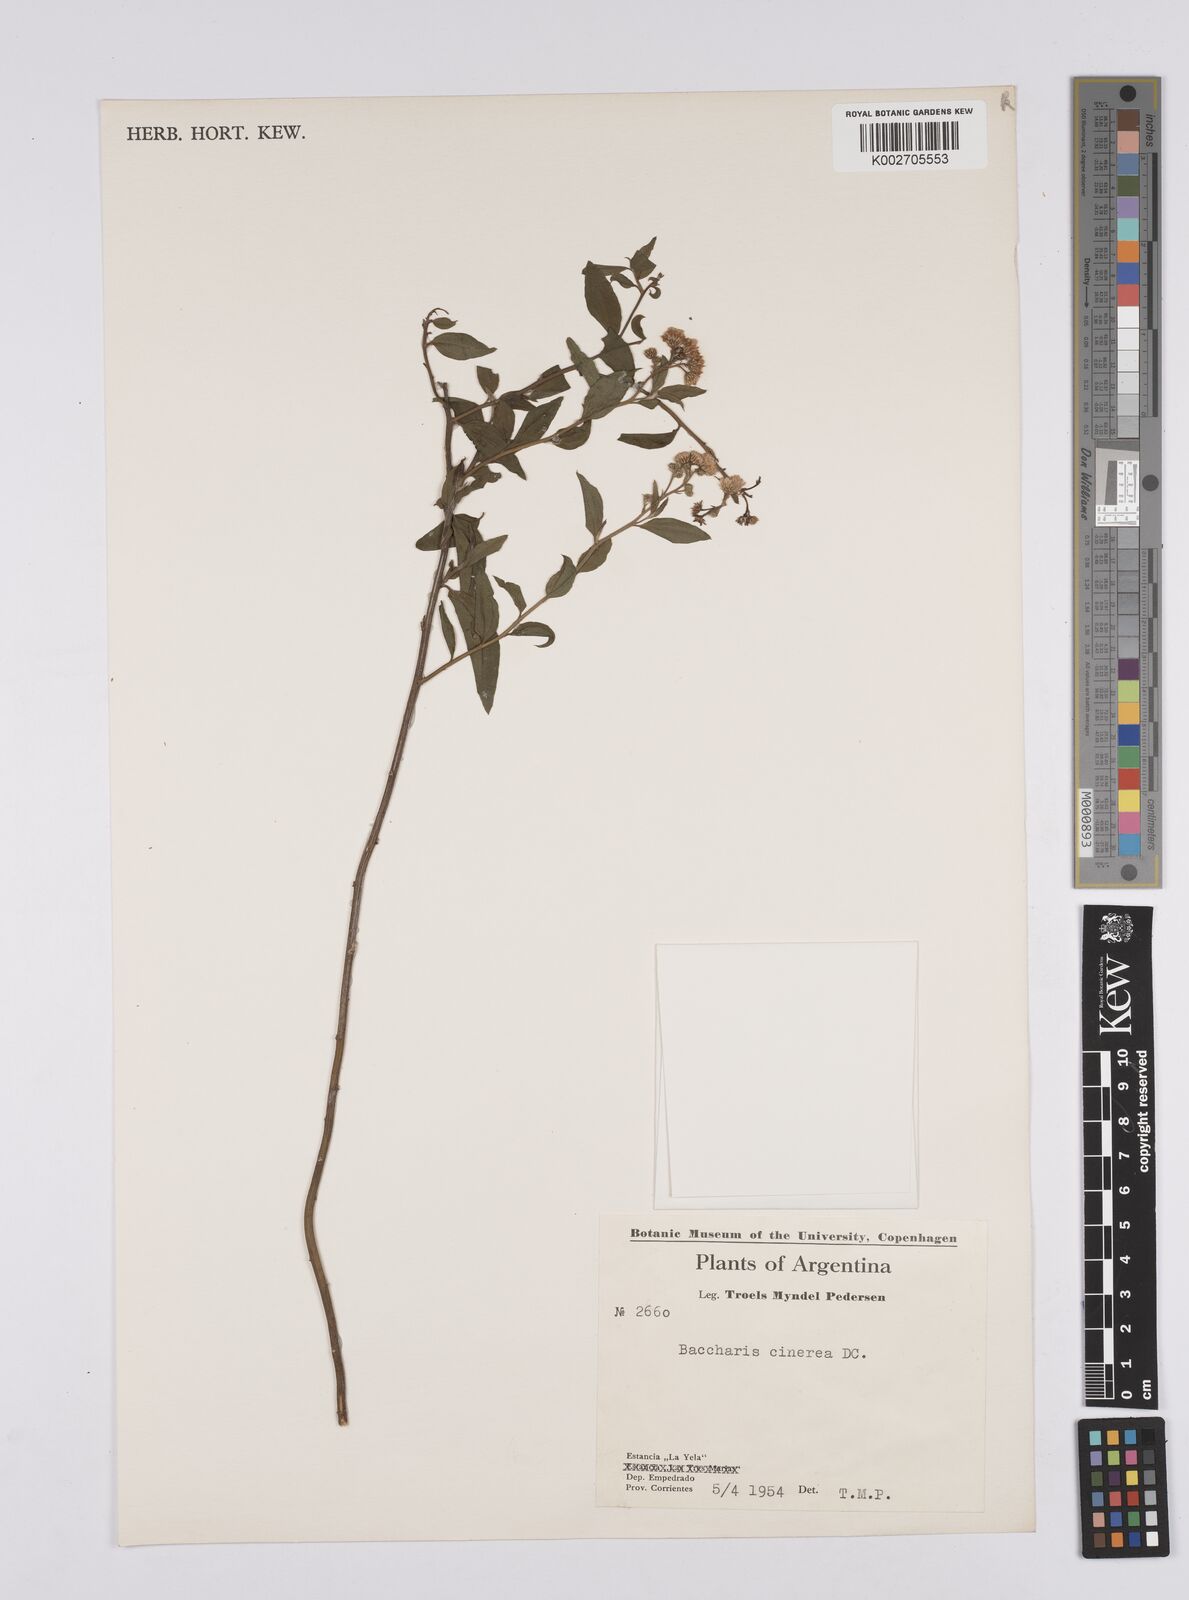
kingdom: Plantae
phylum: Tracheophyta
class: Magnoliopsida
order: Asterales
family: Asteraceae
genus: Baccharis
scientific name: Baccharis trinervis
